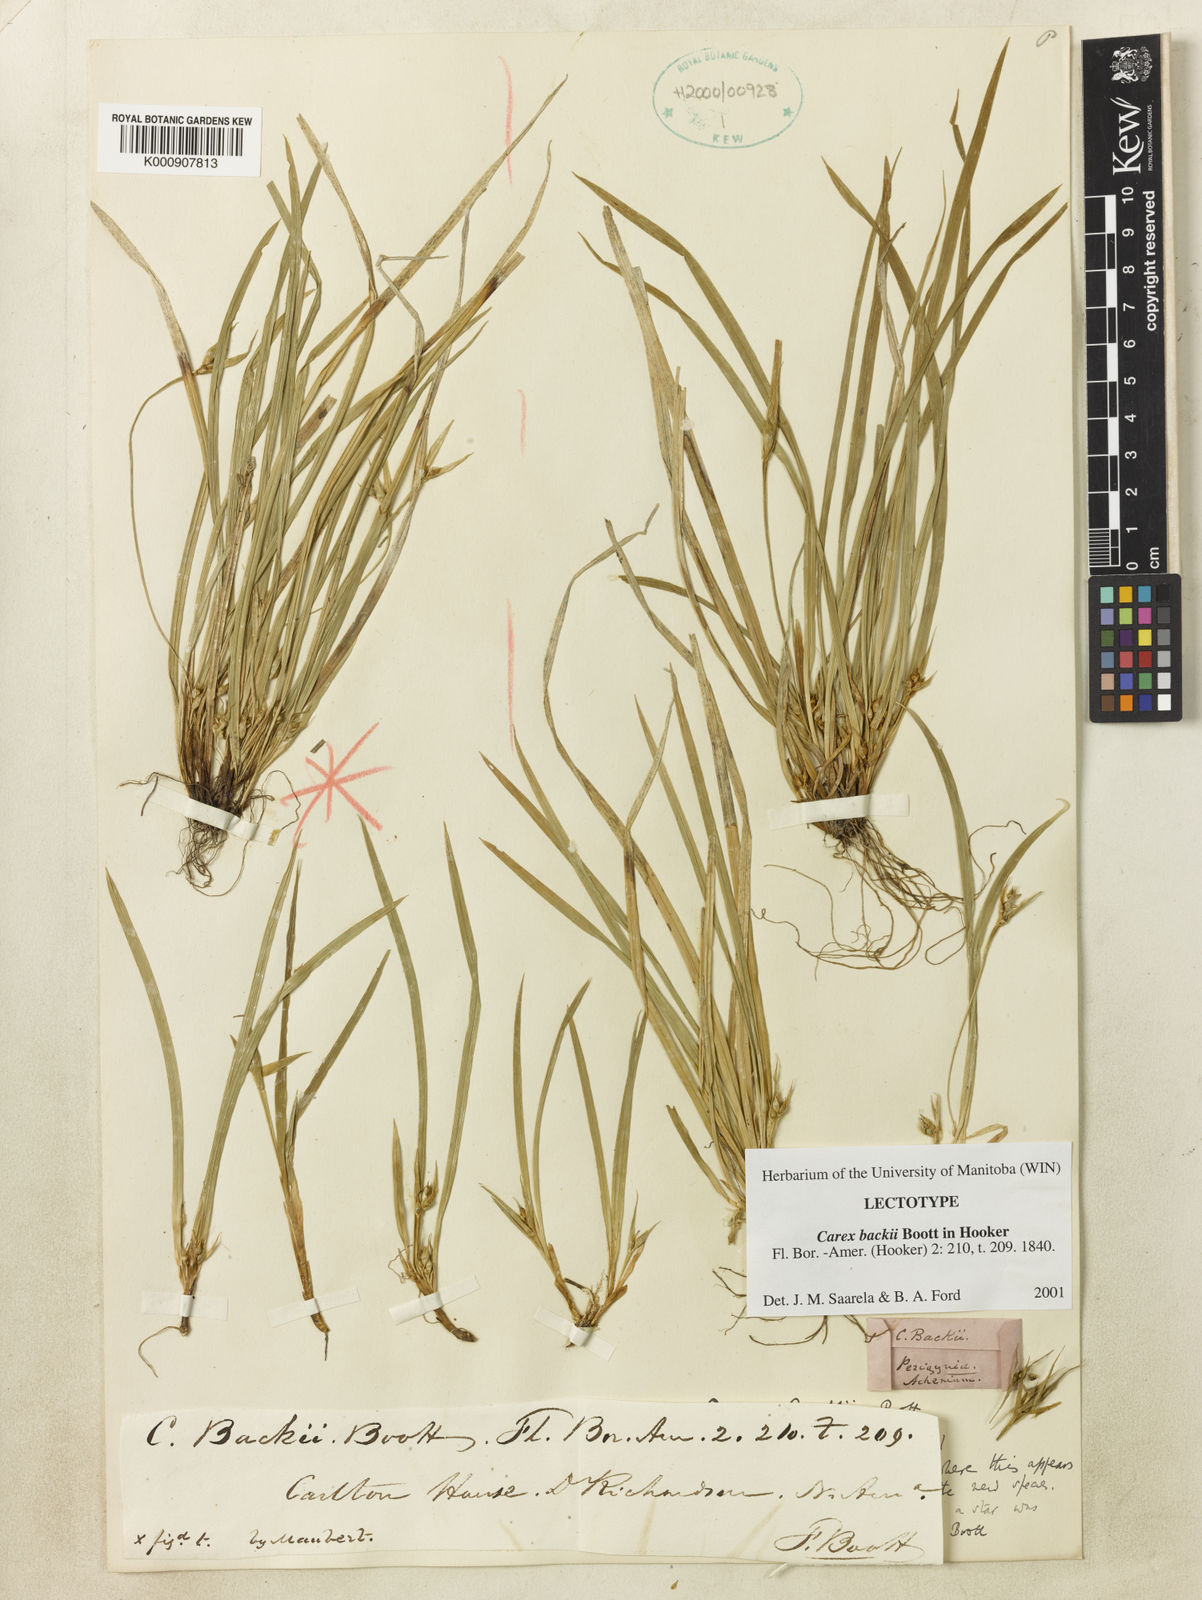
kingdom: Plantae
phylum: Tracheophyta
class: Liliopsida
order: Poales
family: Cyperaceae
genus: Carex
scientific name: Carex backii
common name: Back's sedge
